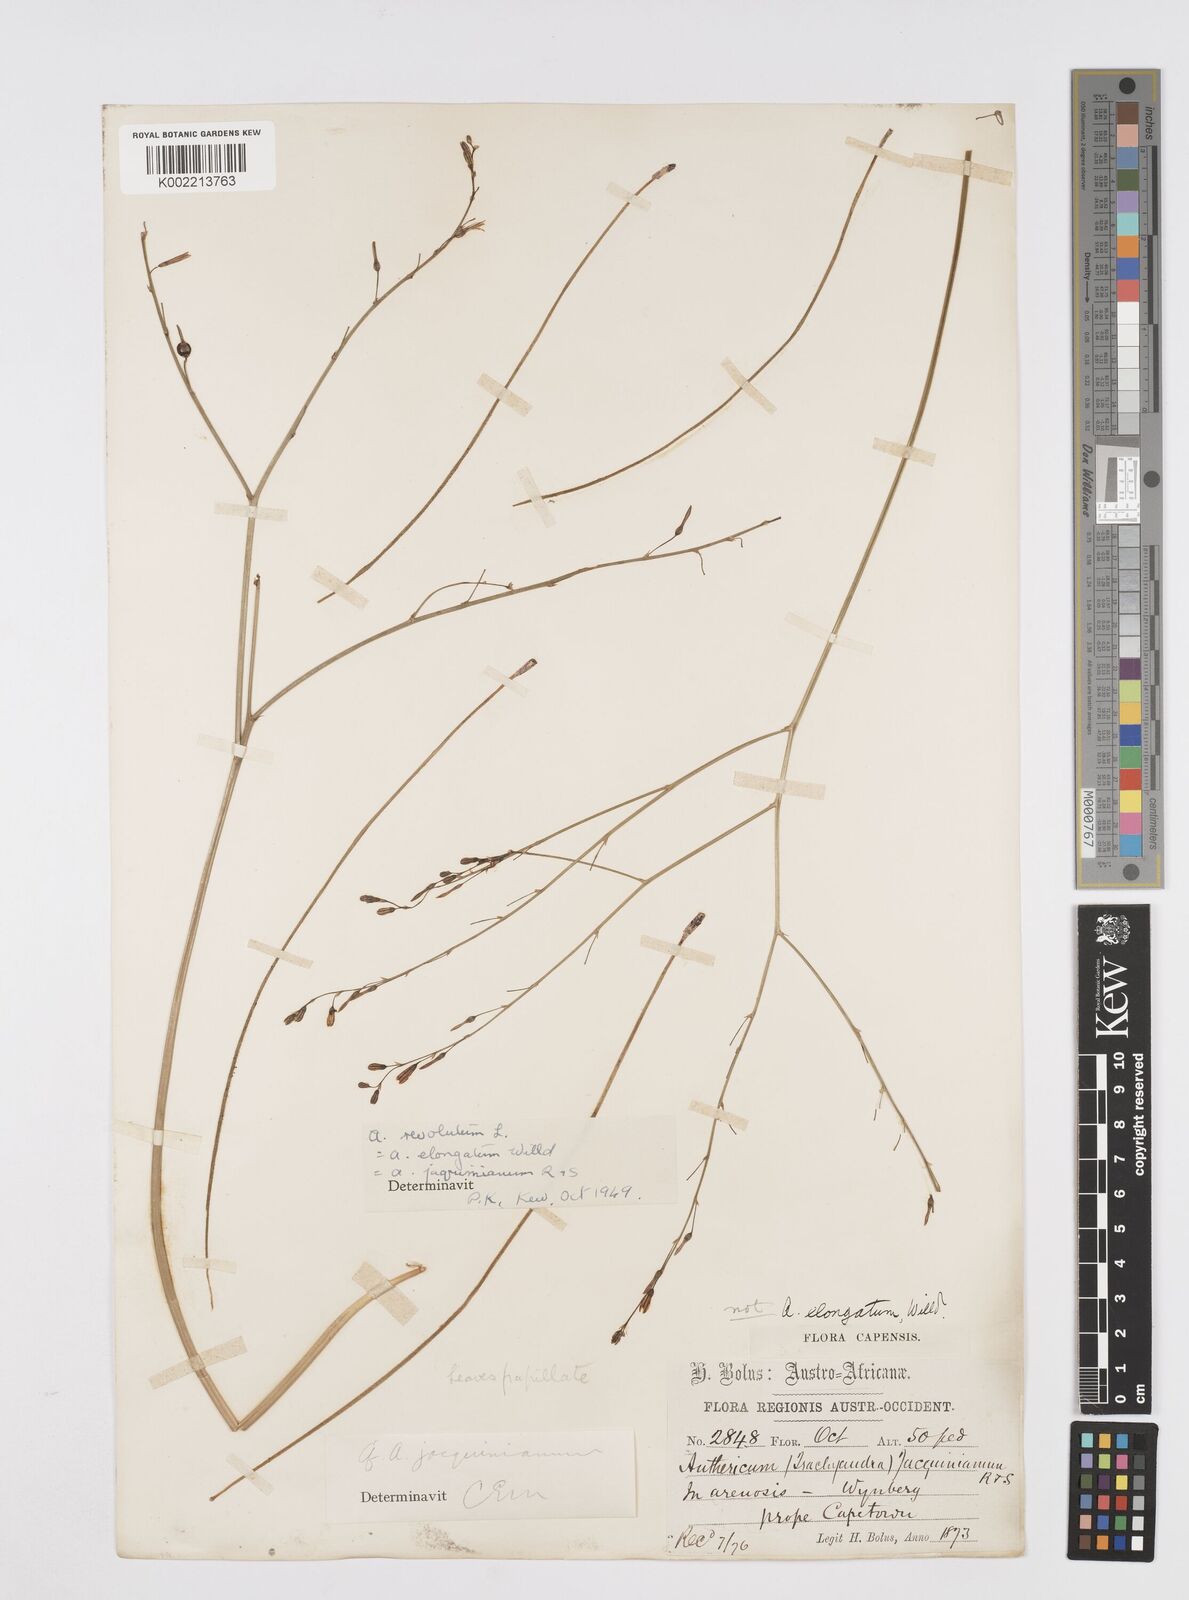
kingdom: Plantae
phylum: Tracheophyta
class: Liliopsida
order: Asparagales
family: Asphodelaceae
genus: Trachyandra
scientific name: Trachyandra revoluta
